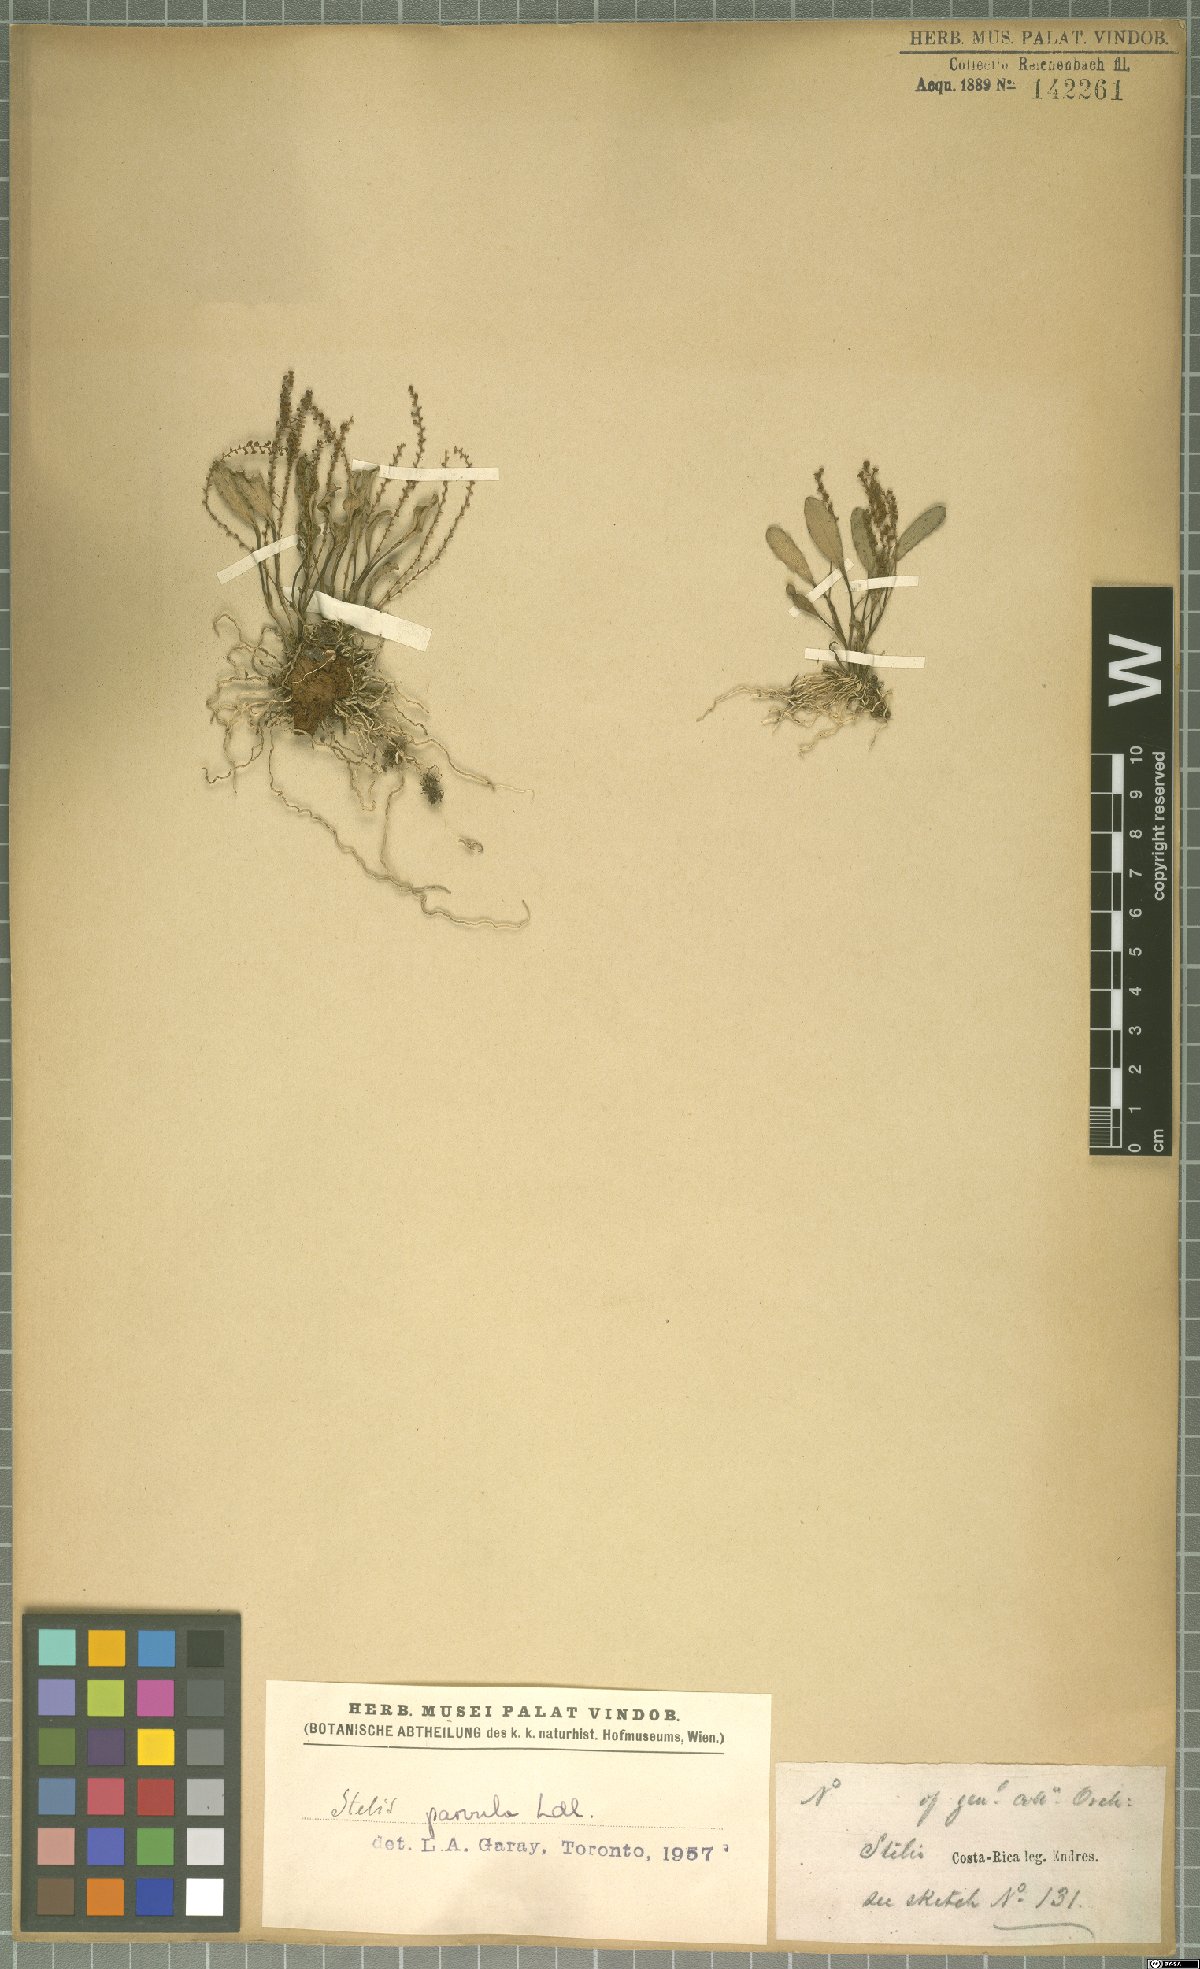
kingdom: Plantae
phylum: Tracheophyta
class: Liliopsida
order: Asparagales
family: Orchidaceae
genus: Stelis
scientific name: Stelis parvula
